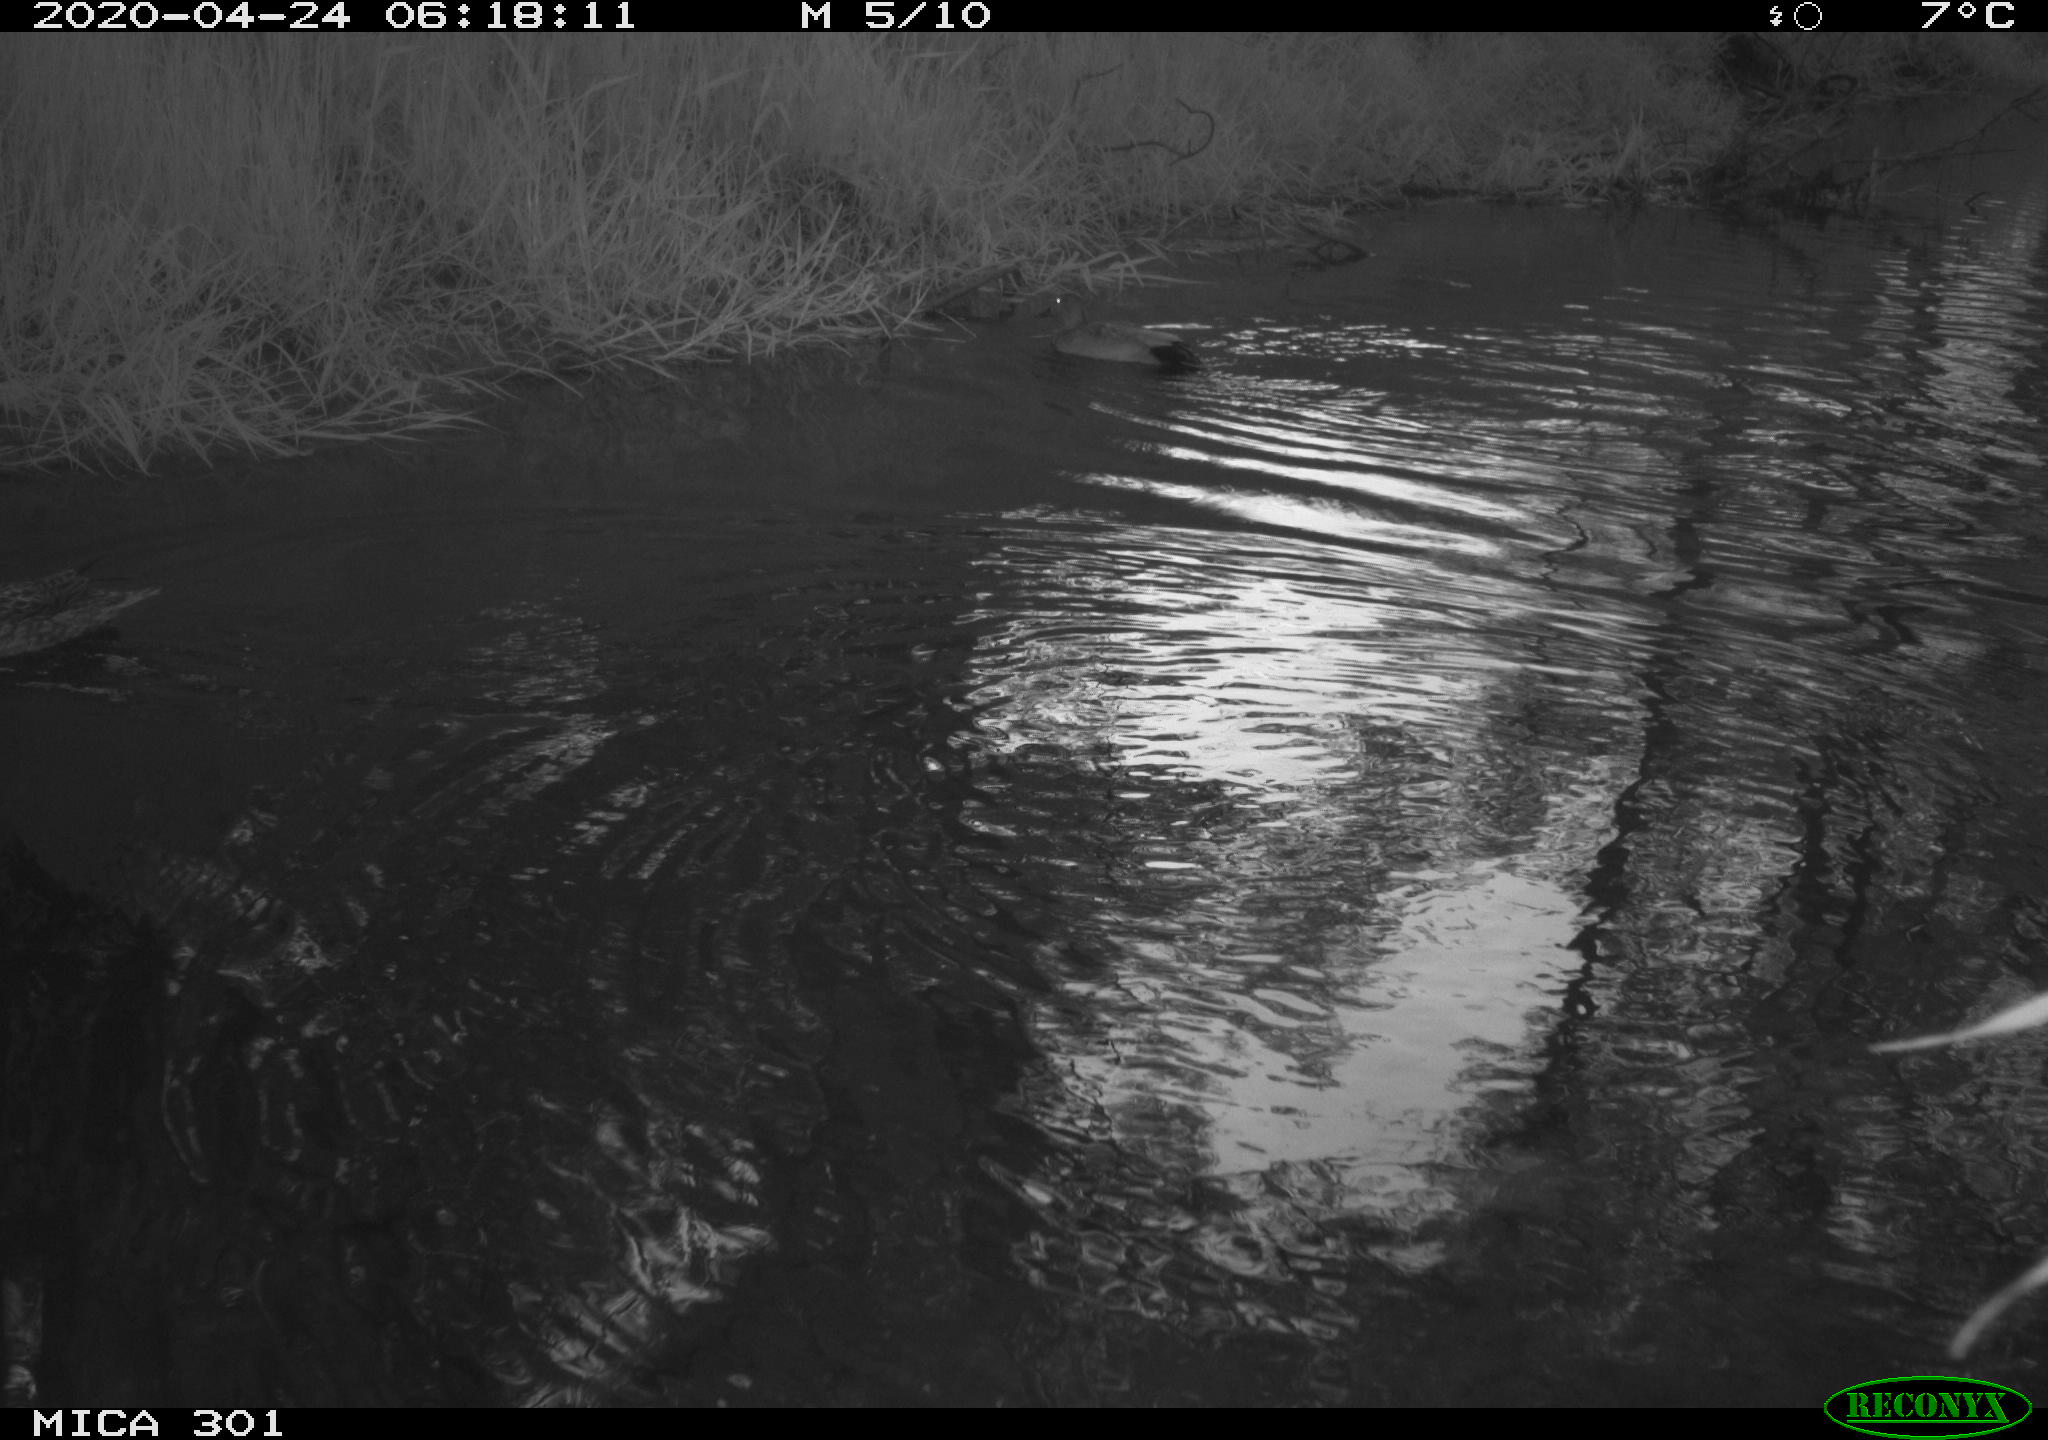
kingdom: Animalia
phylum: Chordata
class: Aves
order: Anseriformes
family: Anatidae
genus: Mareca
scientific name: Mareca strepera
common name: Gadwall
